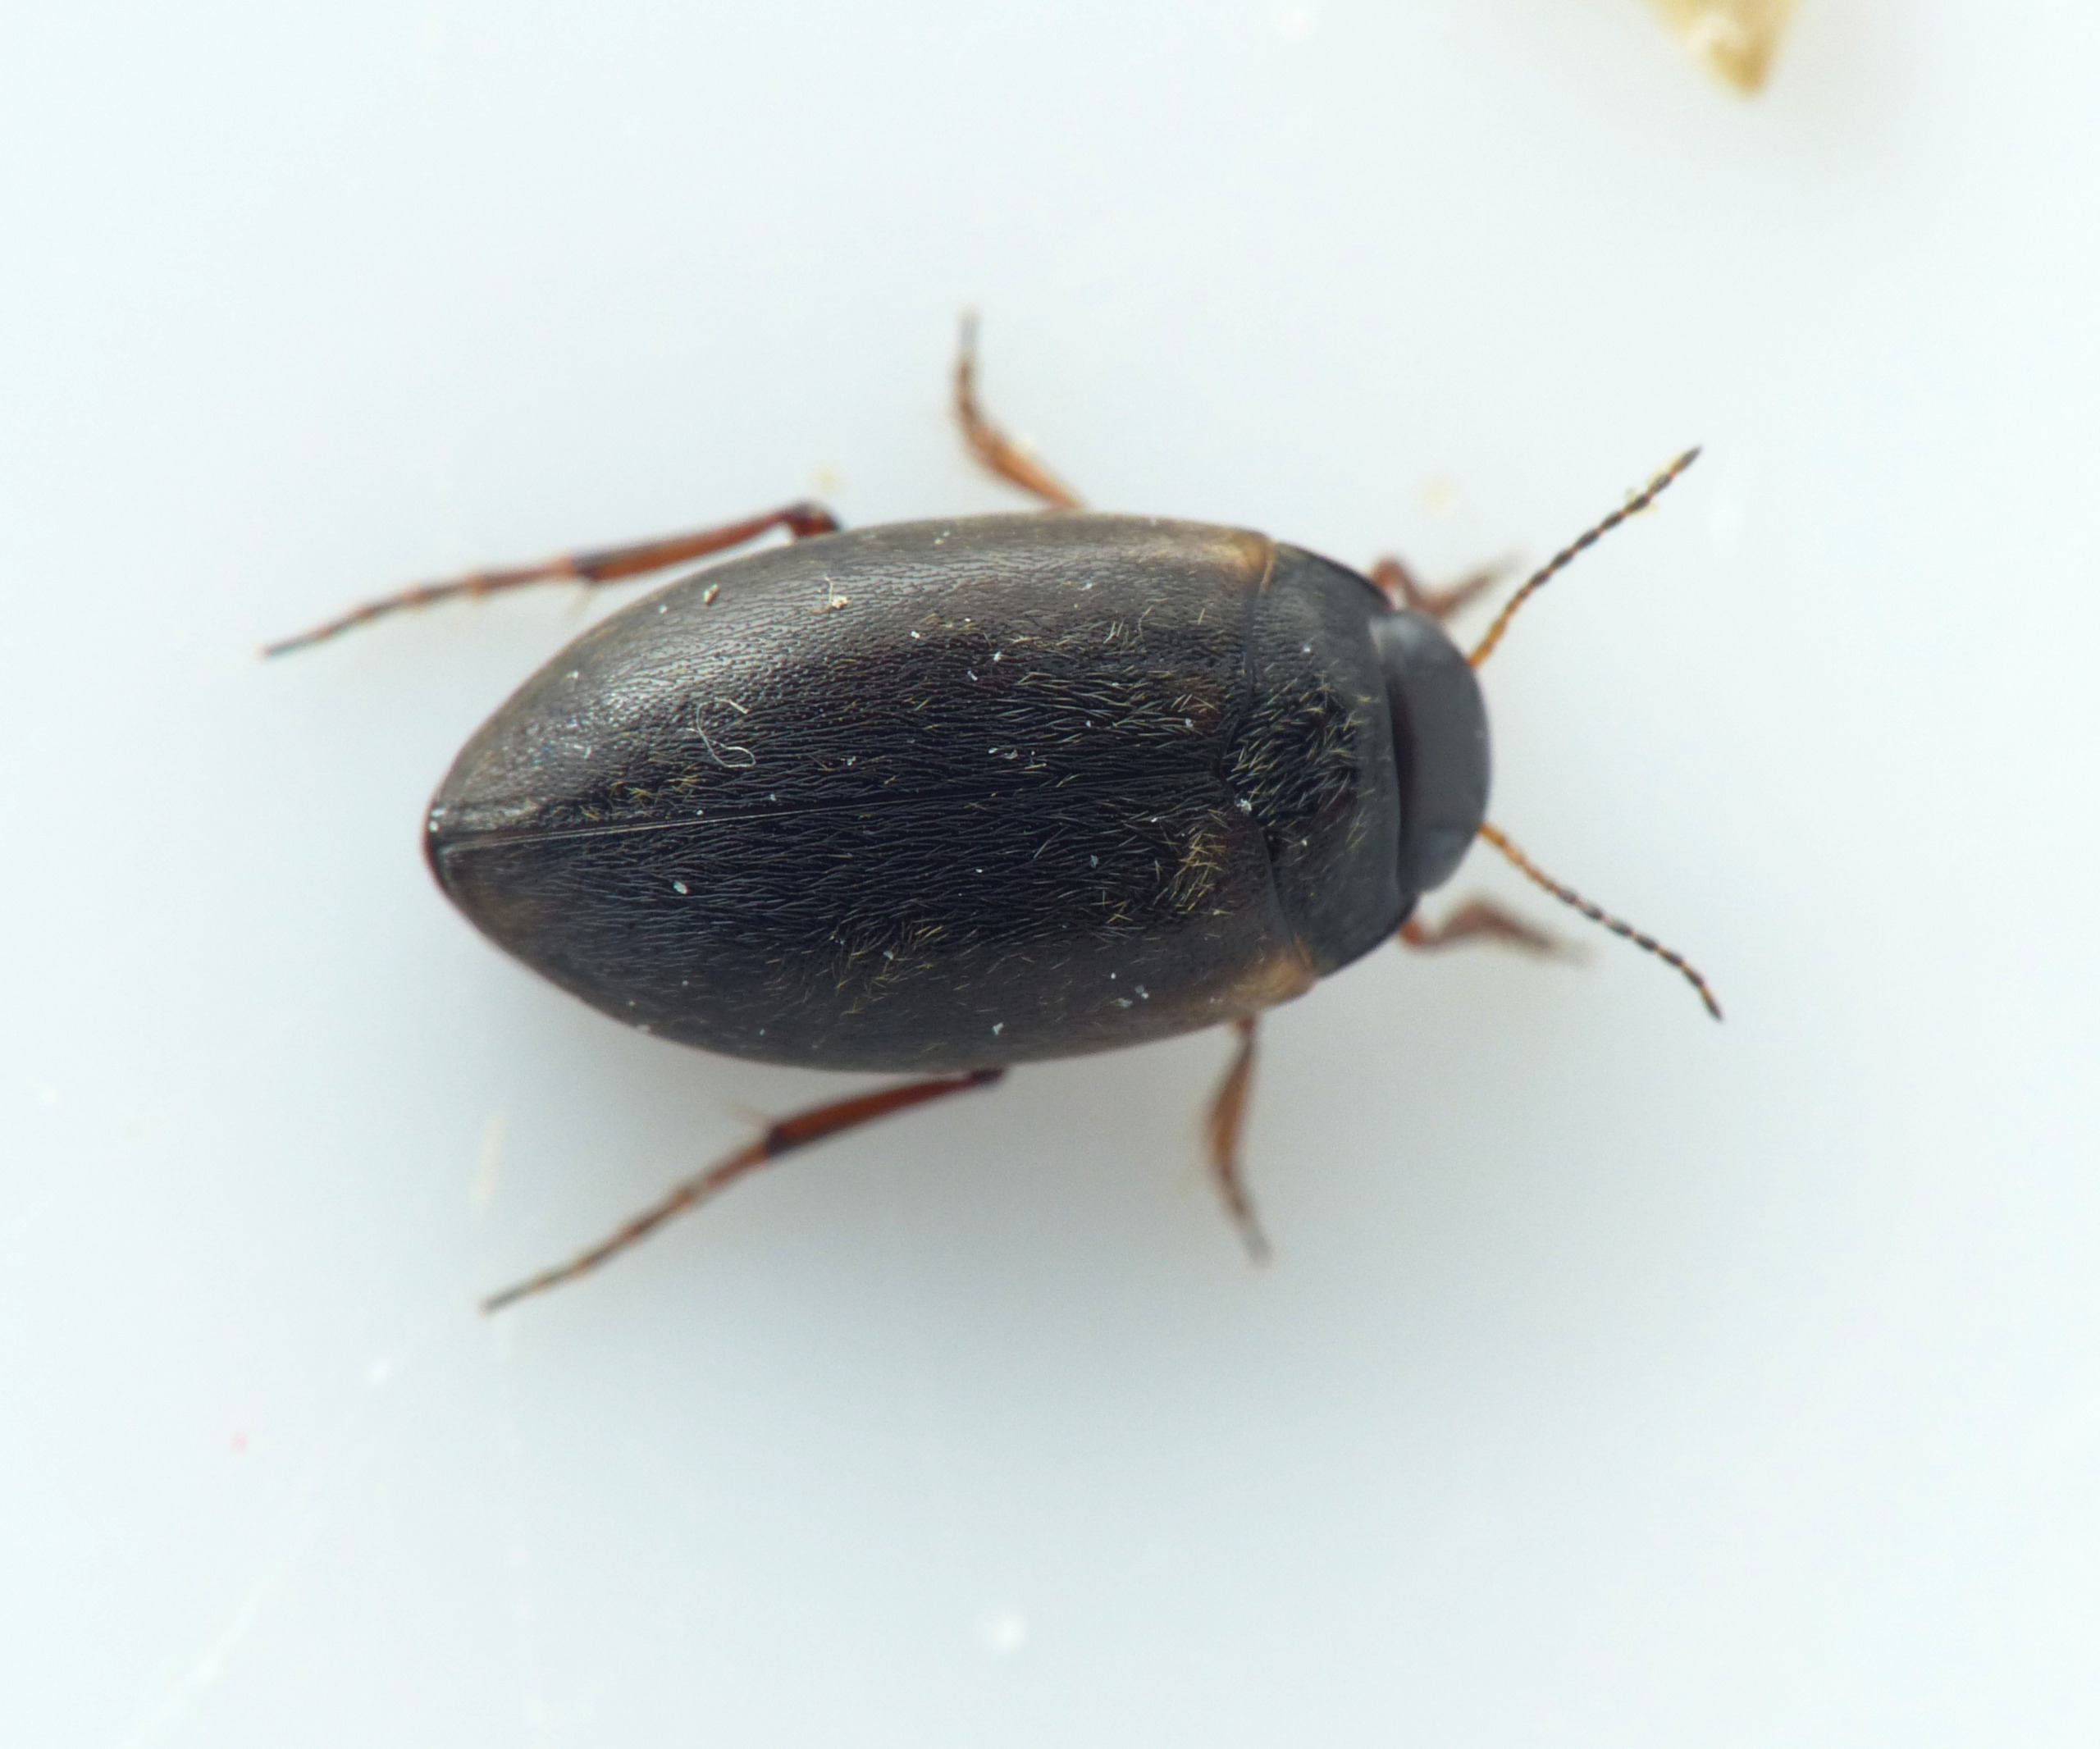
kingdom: Animalia
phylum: Arthropoda
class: Insecta
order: Coleoptera
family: Dytiscidae
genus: Hydroporus
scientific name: Hydroporus planus
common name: Fladtrykt vandkalv
